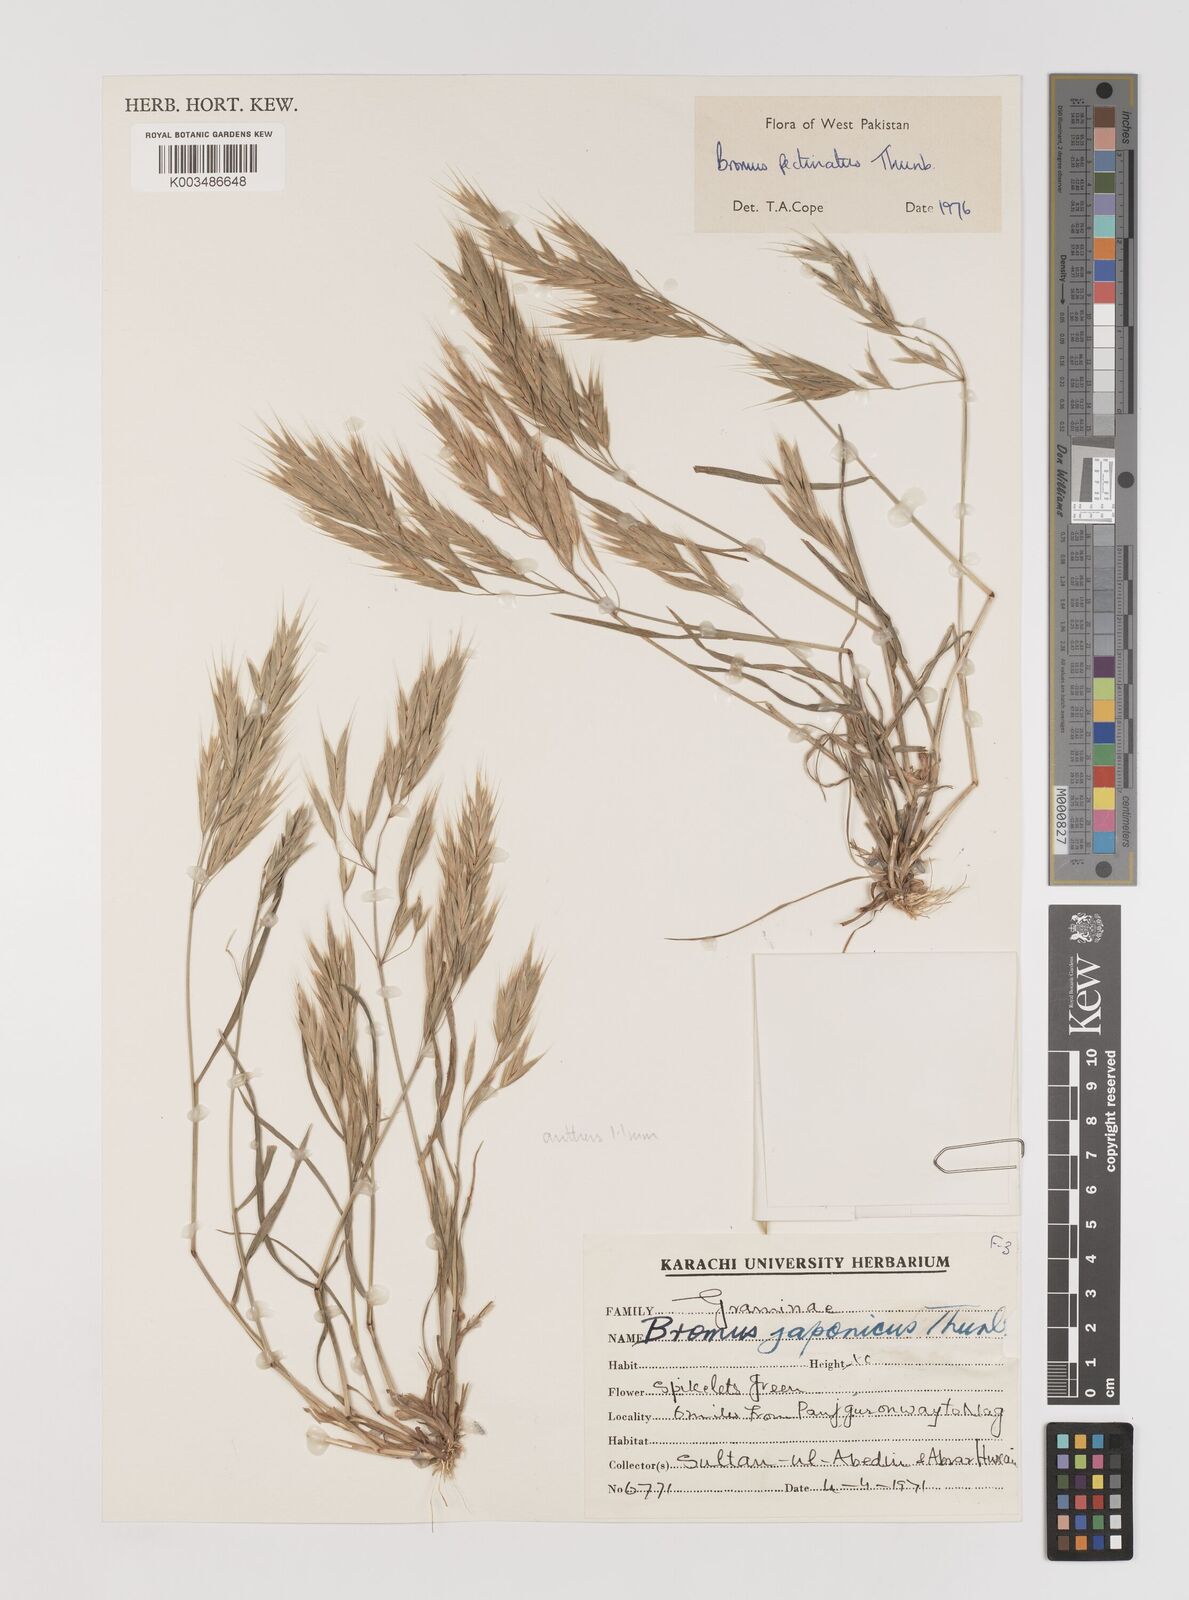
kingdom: Plantae
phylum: Tracheophyta
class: Liliopsida
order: Poales
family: Poaceae
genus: Bromus
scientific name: Bromus pectinatus
